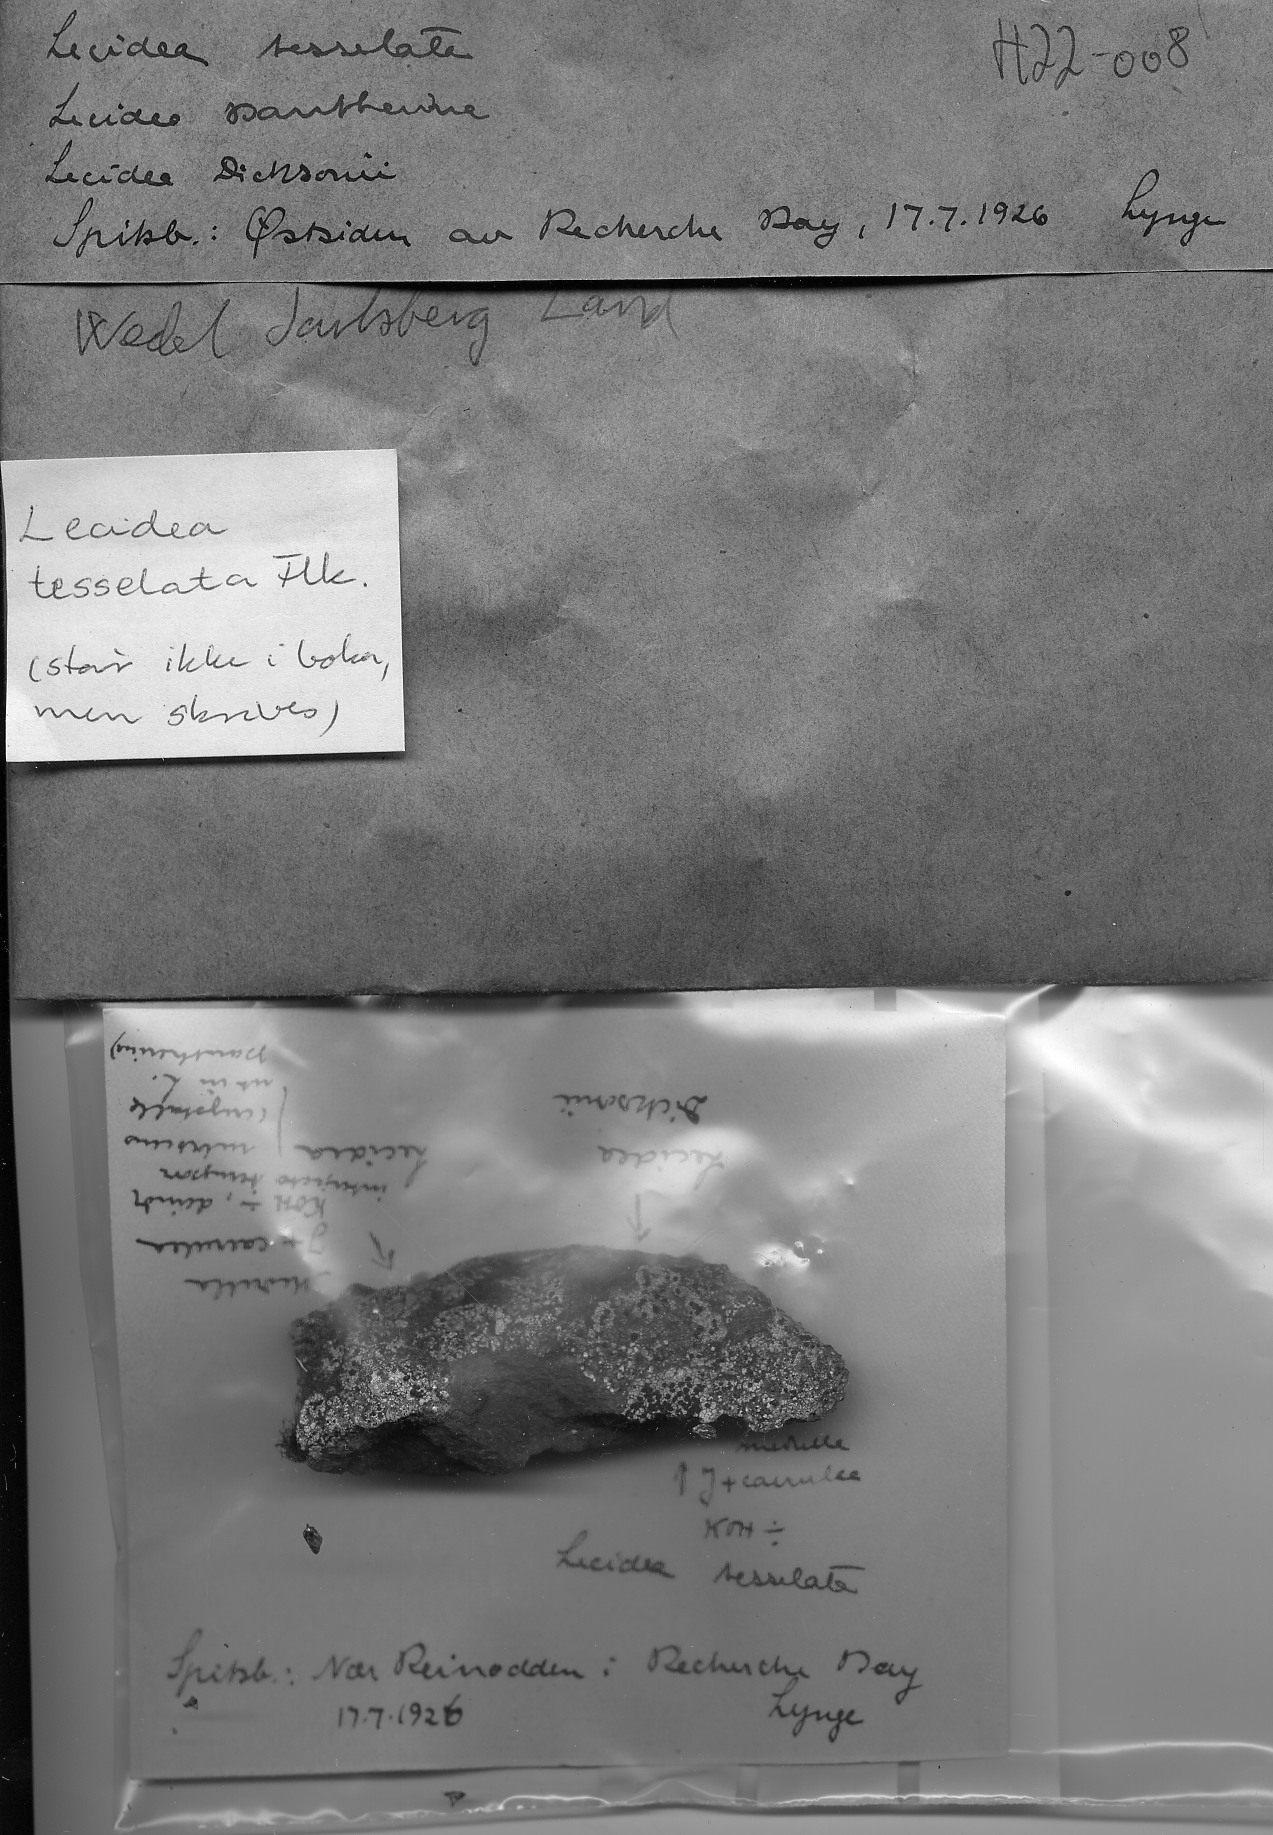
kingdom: Fungi
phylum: Ascomycota
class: Lecanoromycetes
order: Lecideales
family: Lecideaceae
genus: Lecidea
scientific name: Lecidea lapicida
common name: Gray-orange disk lichen
